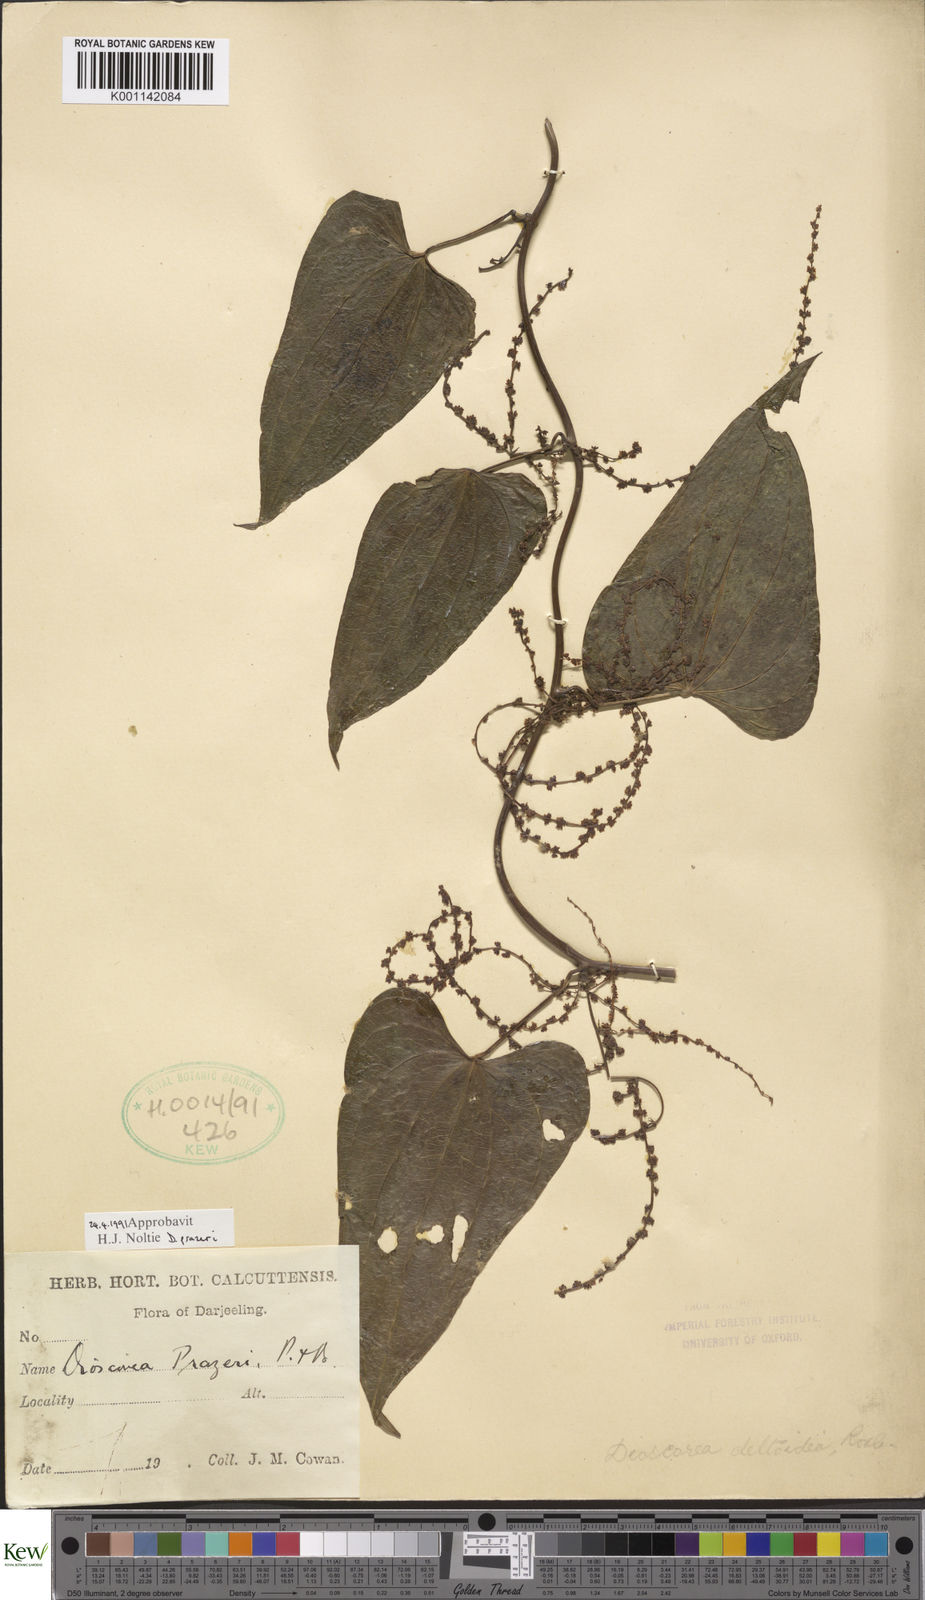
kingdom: Plantae
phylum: Tracheophyta
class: Liliopsida
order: Dioscoreales
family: Dioscoreaceae
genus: Dioscorea
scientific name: Dioscorea prazeri
